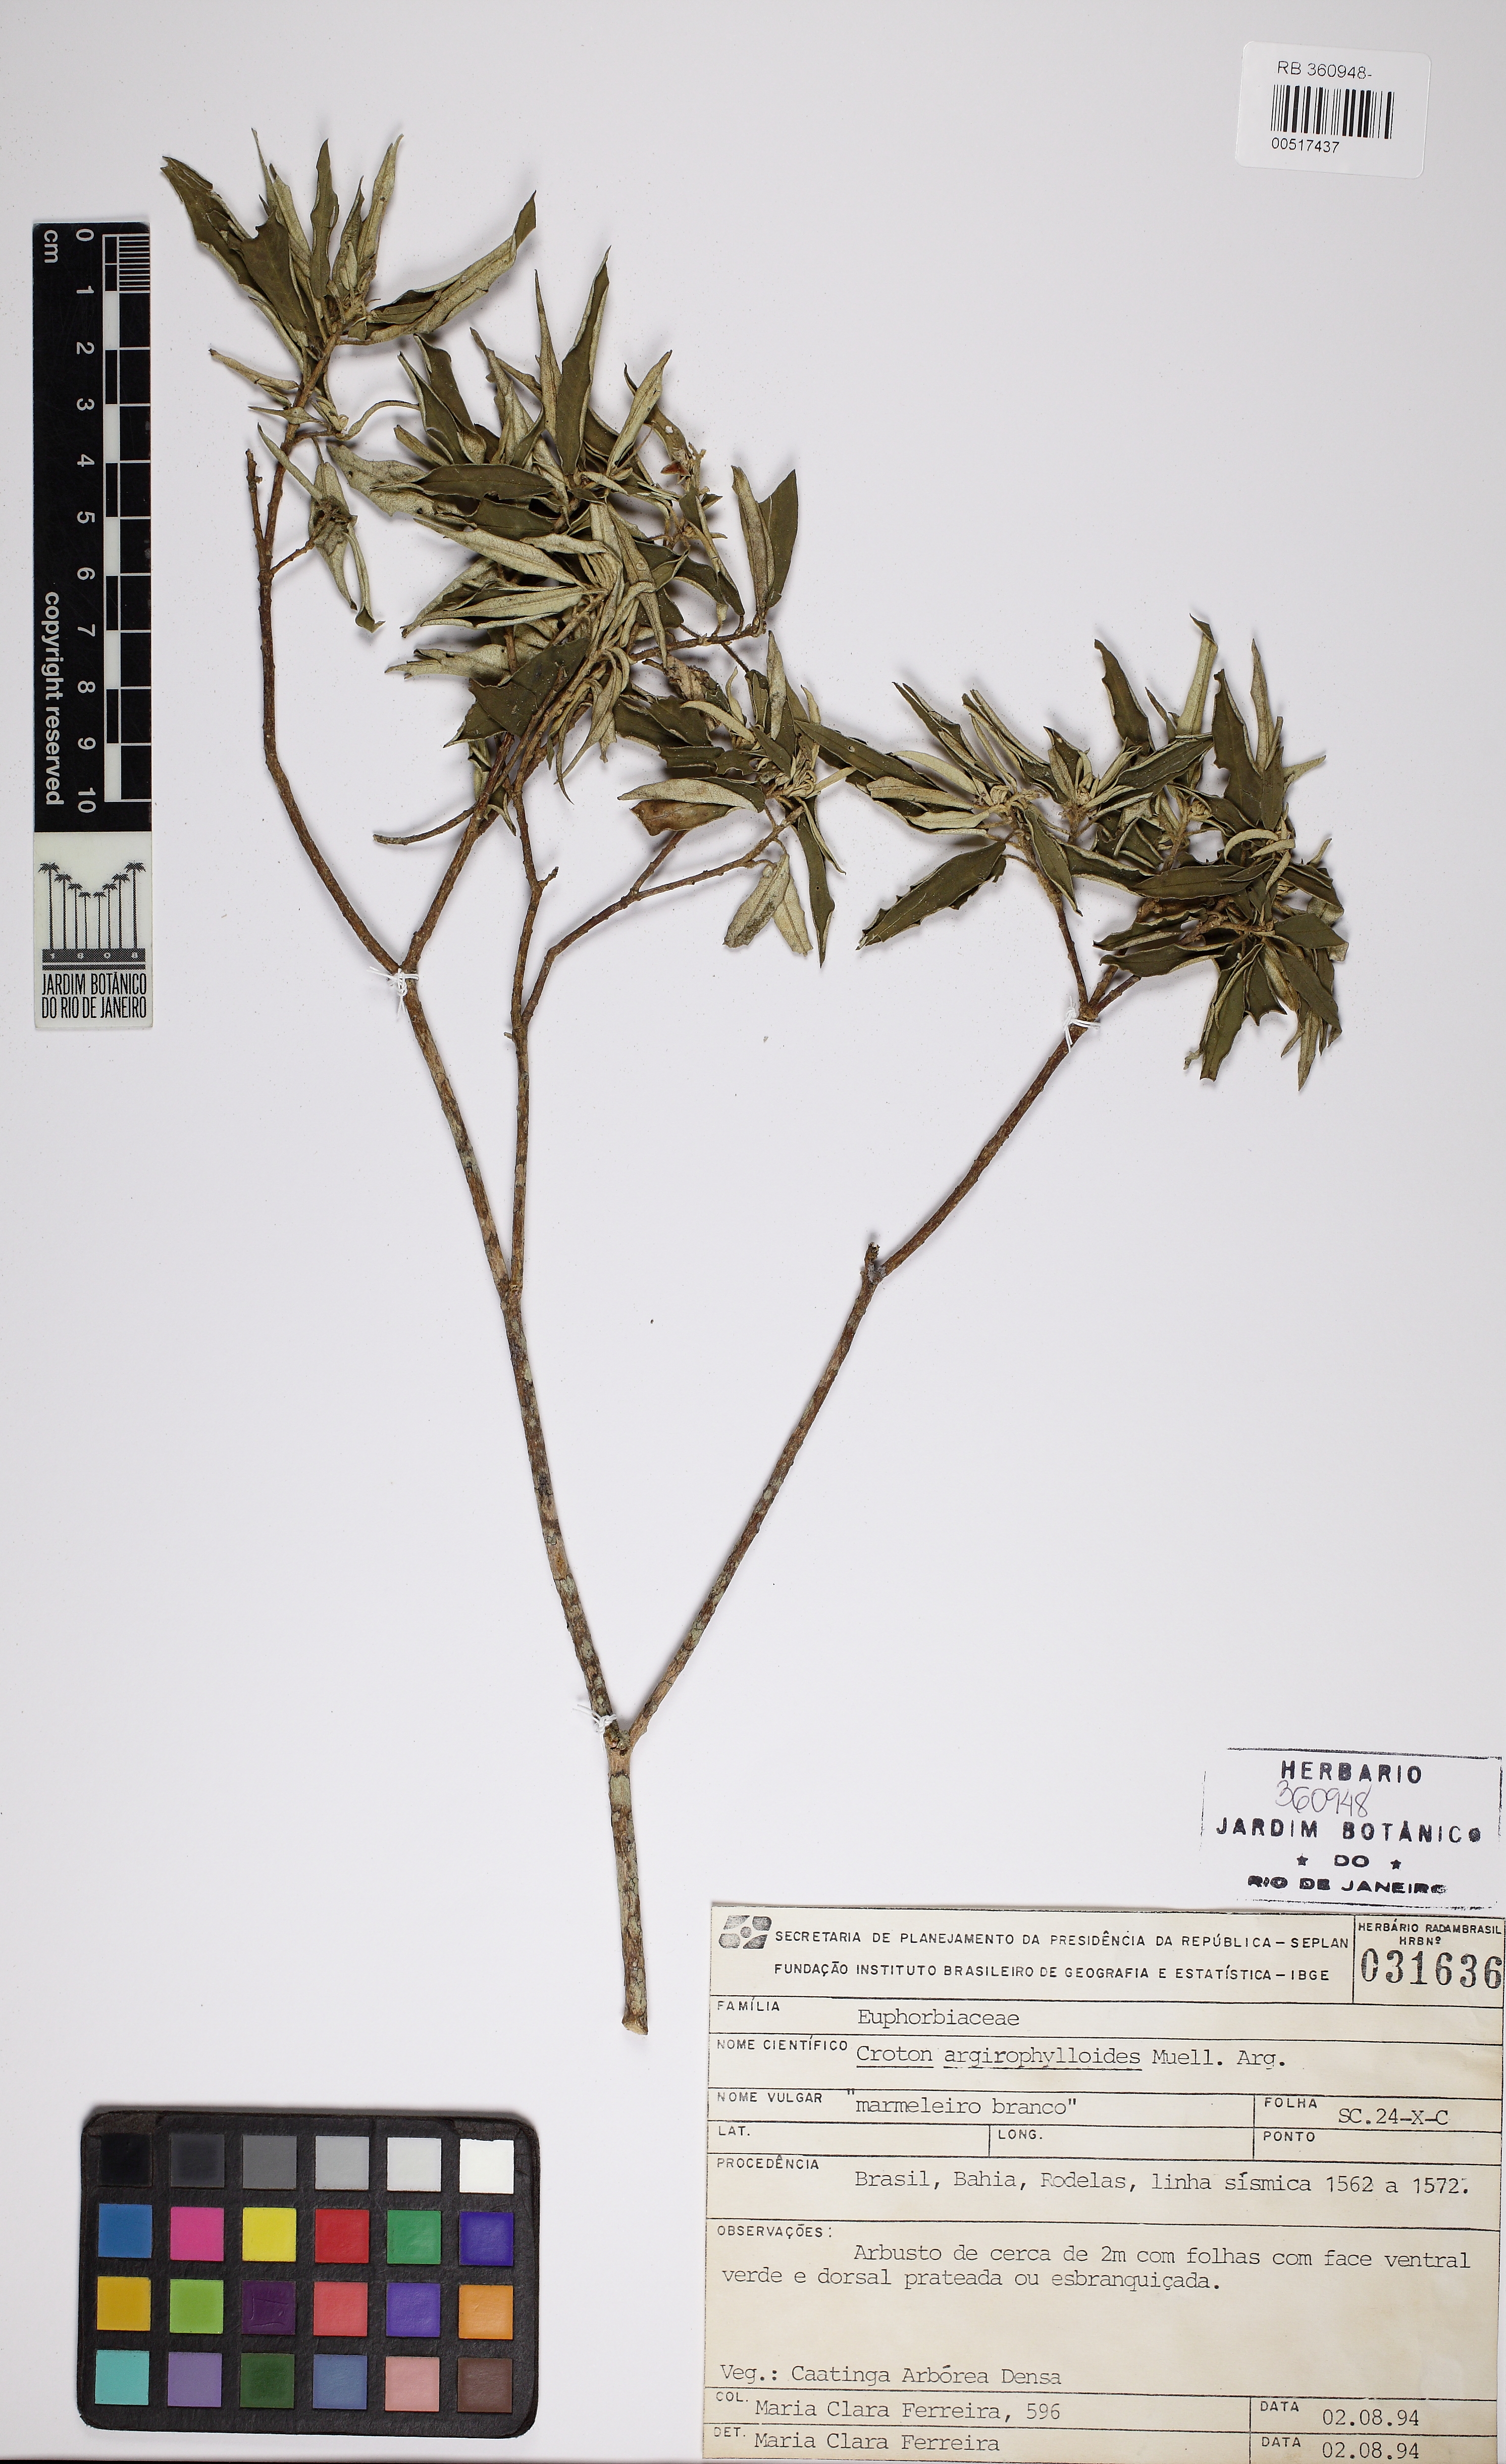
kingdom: Plantae
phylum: Tracheophyta
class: Magnoliopsida
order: Malpighiales
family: Euphorbiaceae
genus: Croton
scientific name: Croton tricolor
